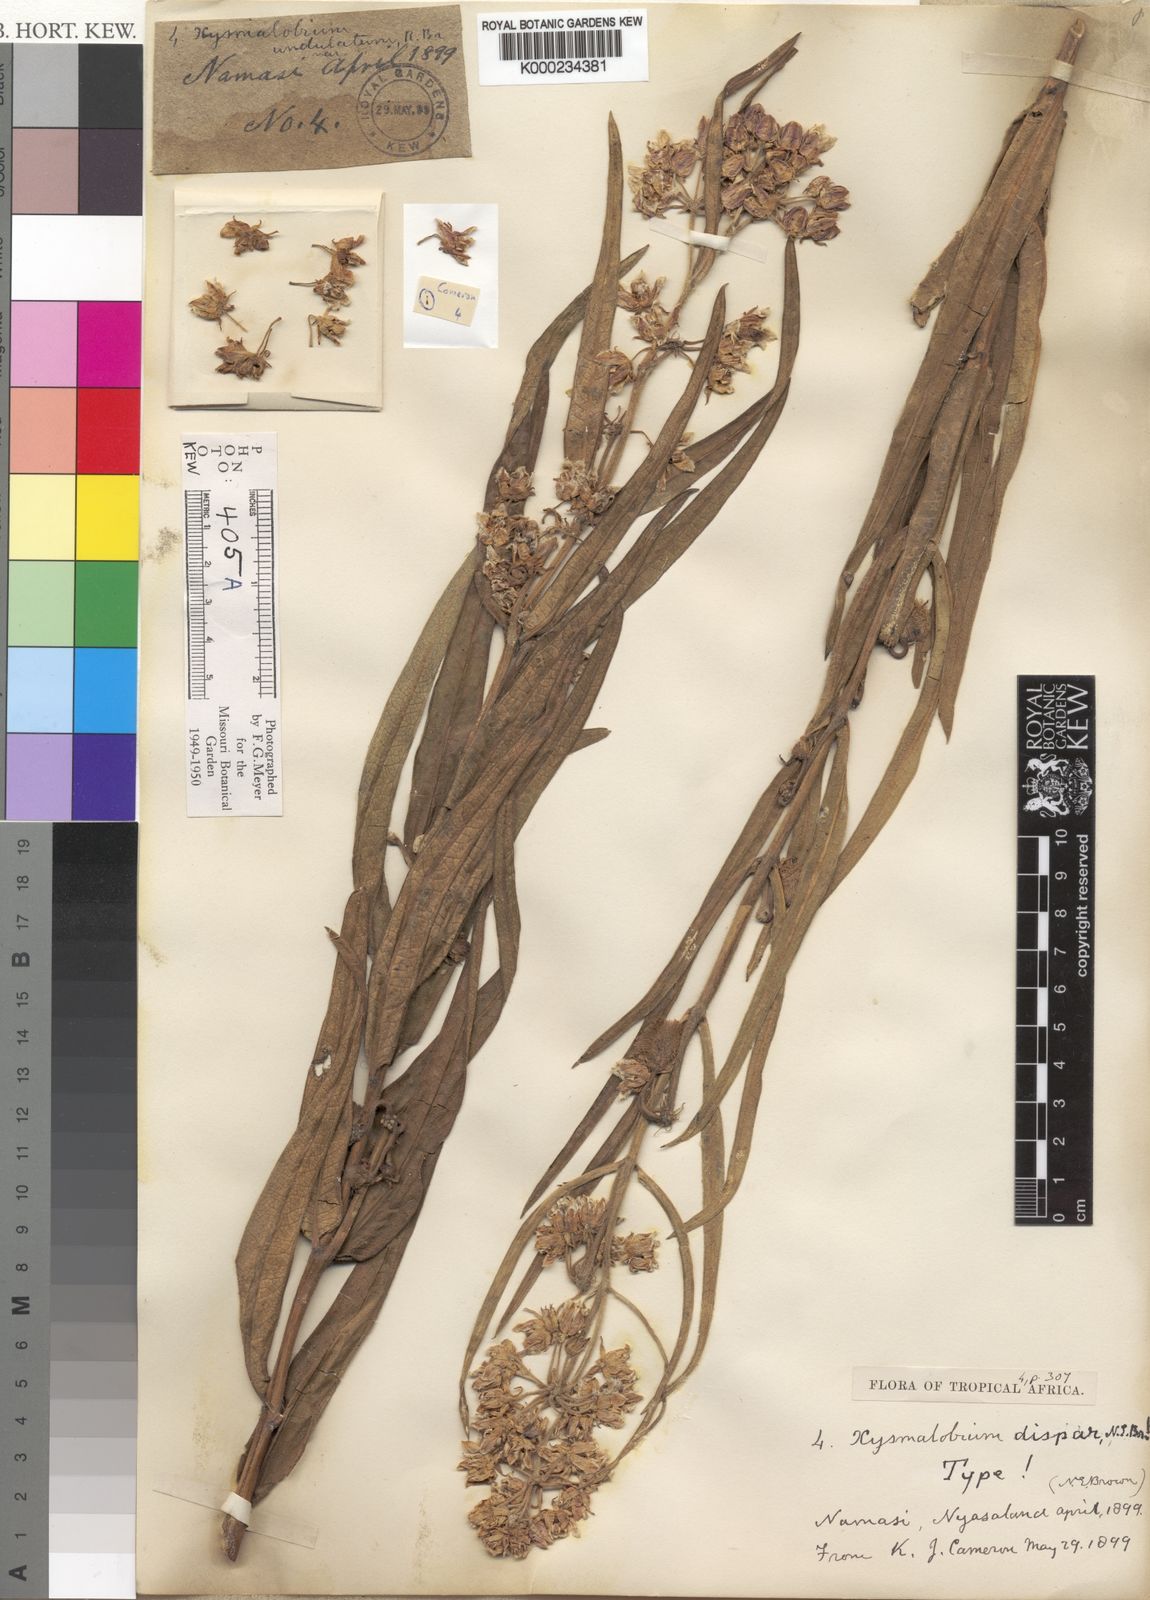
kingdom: Plantae
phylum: Tracheophyta
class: Magnoliopsida
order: Gentianales
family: Apocynaceae
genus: Xysmalobium
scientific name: Xysmalobium undulatum
